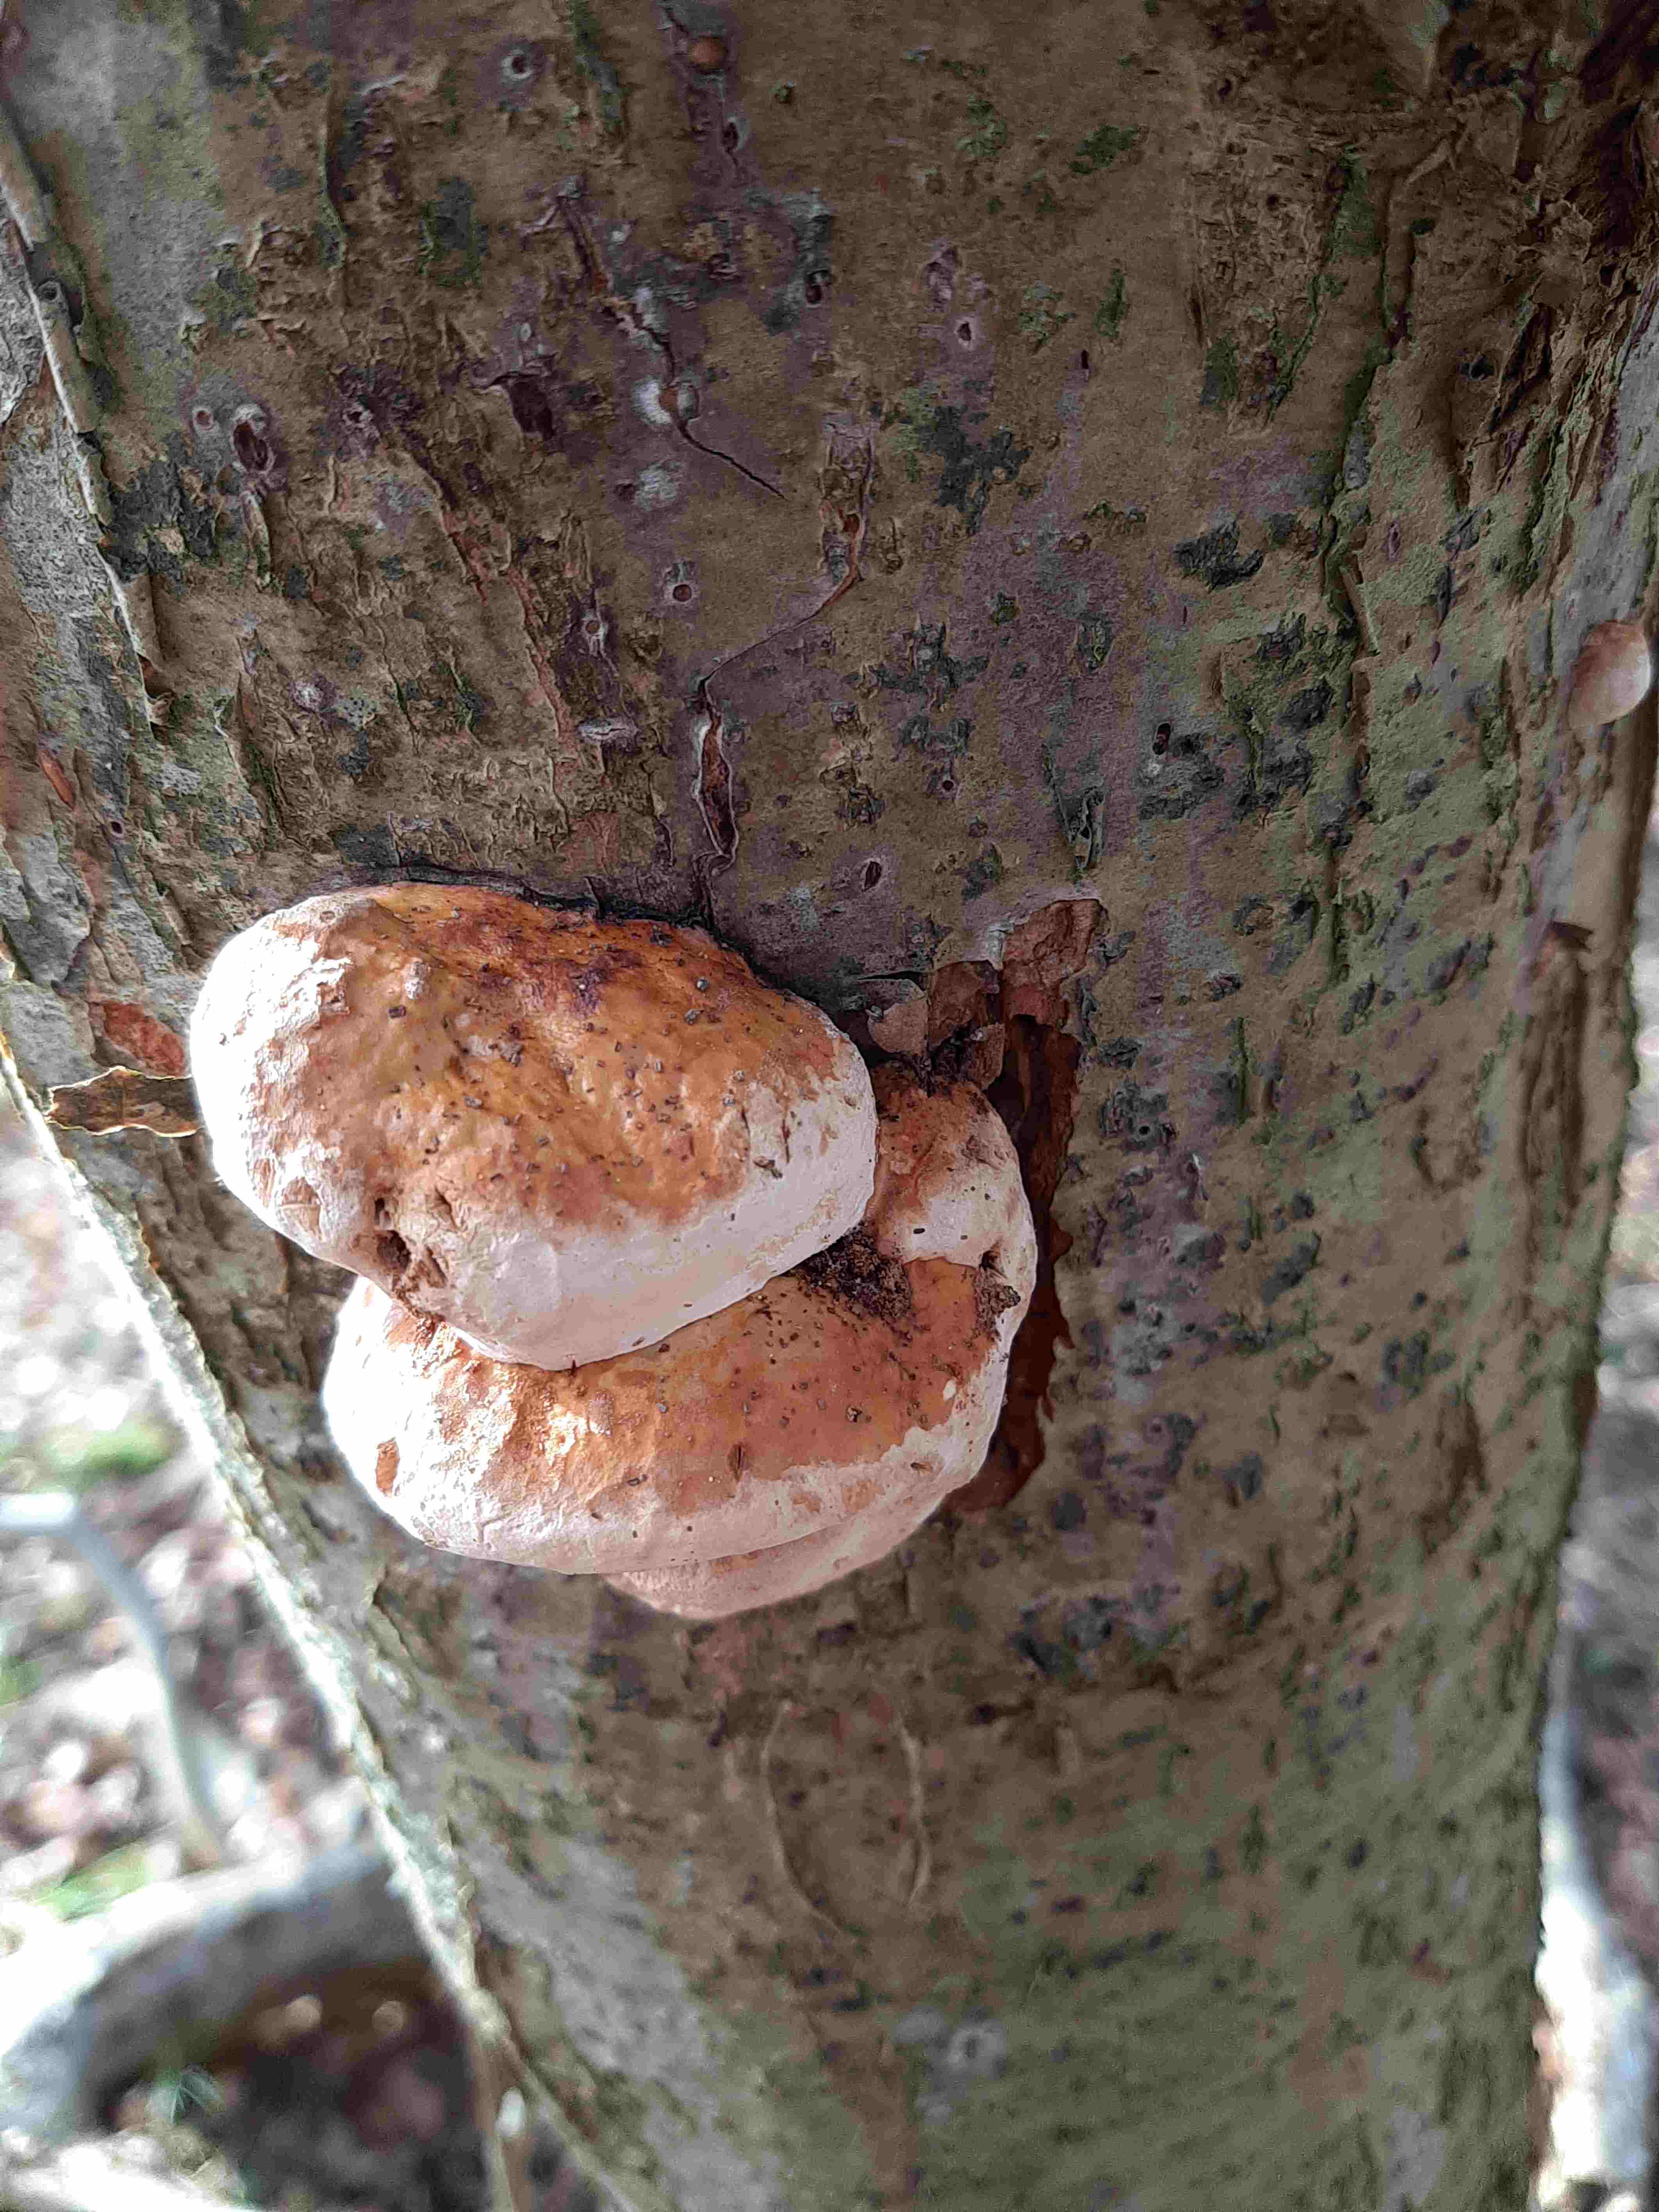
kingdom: Fungi
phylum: Basidiomycota
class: Agaricomycetes
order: Polyporales
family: Fomitopsidaceae
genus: Fomitopsis
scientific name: Fomitopsis pinicola
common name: randbæltet hovporesvamp
